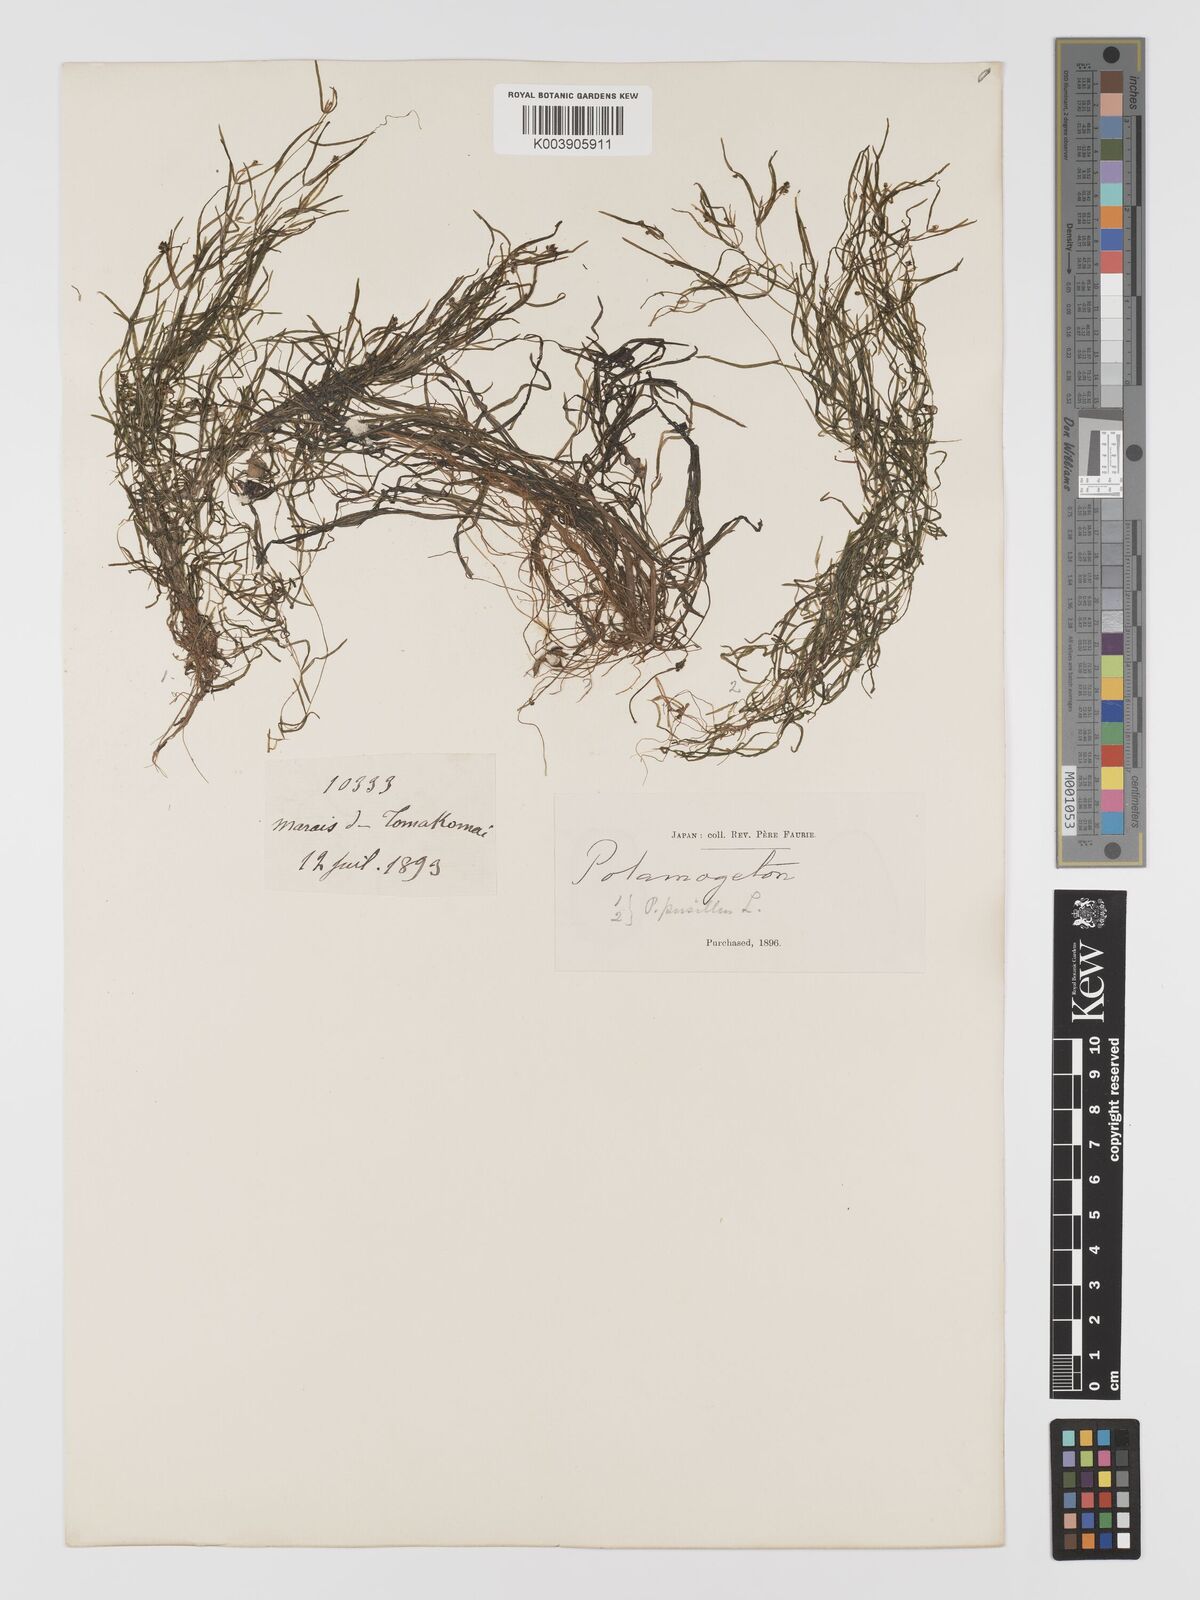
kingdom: Plantae
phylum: Tracheophyta
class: Liliopsida
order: Alismatales
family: Potamogetonaceae
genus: Potamogeton
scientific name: Potamogeton pusillus
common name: Lesser pondweed
